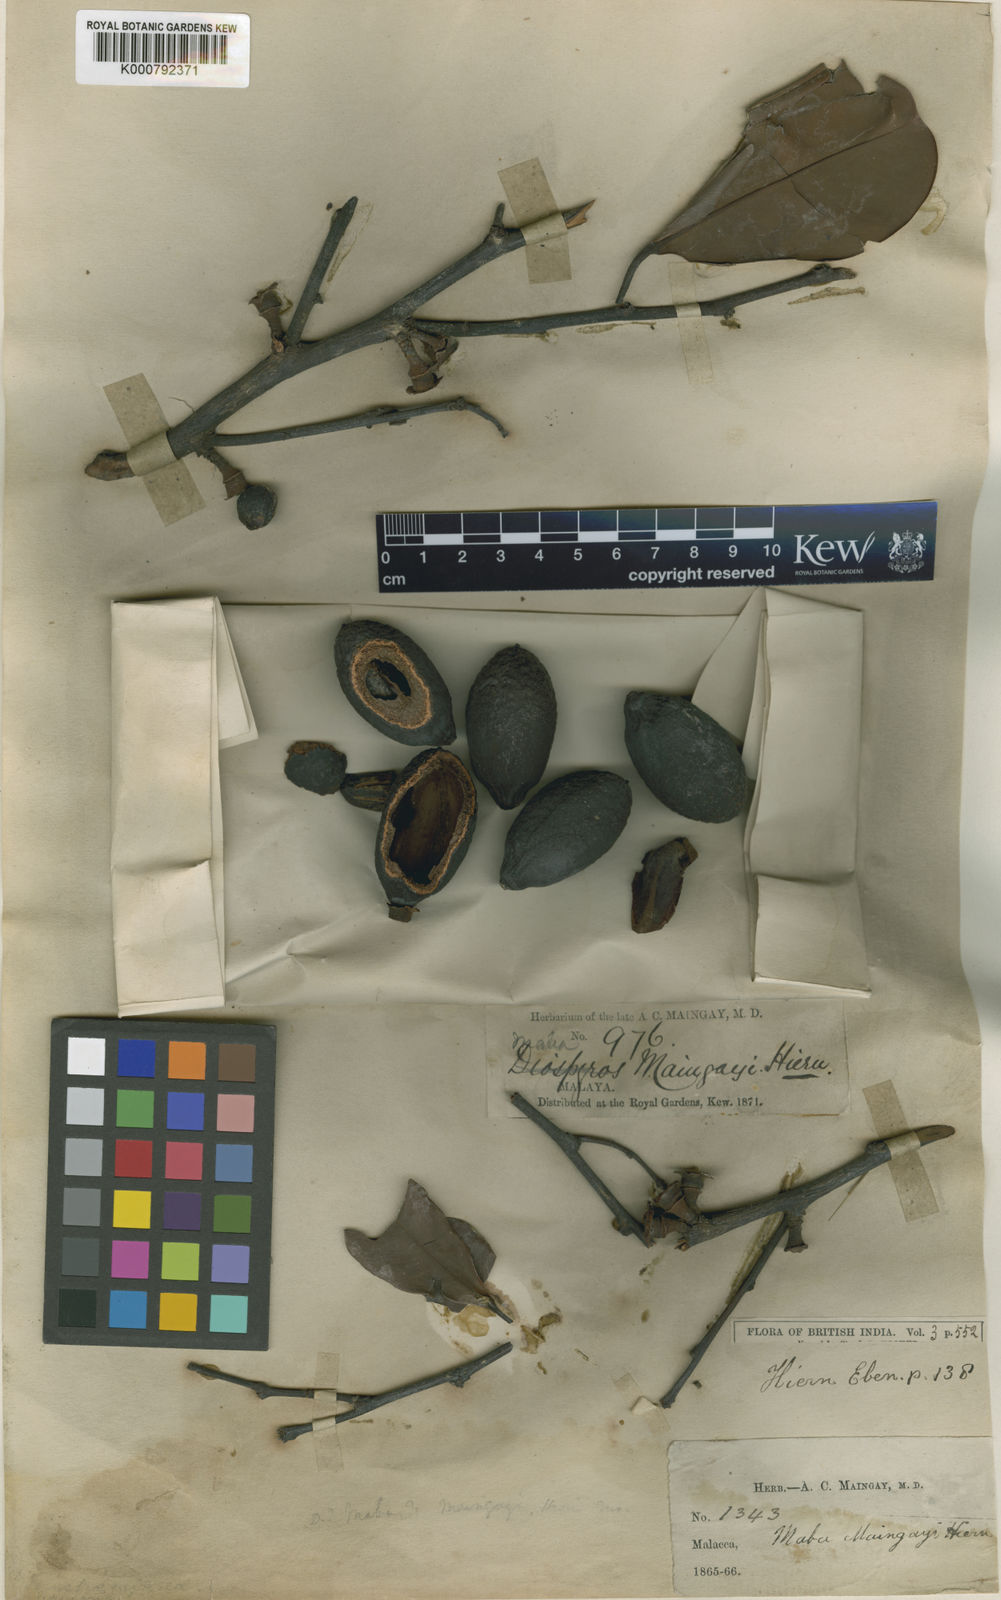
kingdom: Plantae
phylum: Tracheophyta
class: Magnoliopsida
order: Ericales
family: Ebenaceae
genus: Diospyros
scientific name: Diospyros maingayi
